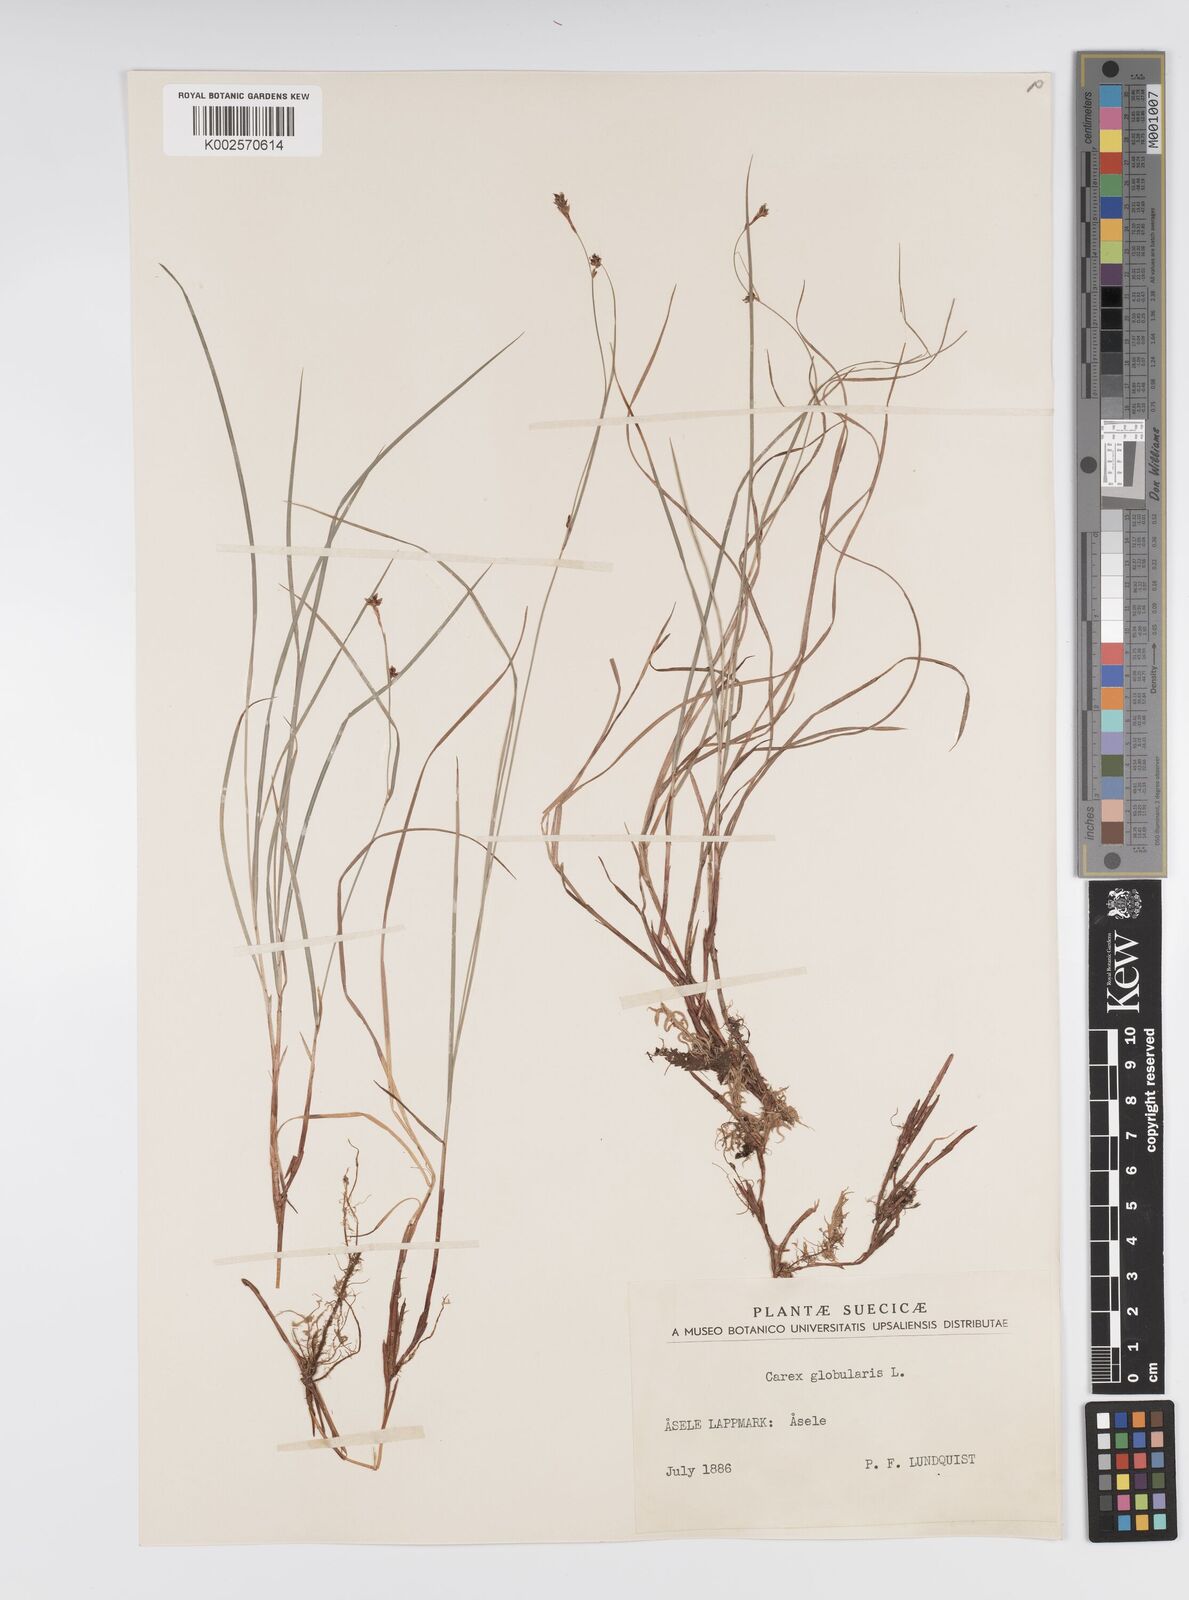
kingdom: Plantae
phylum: Tracheophyta
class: Liliopsida
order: Poales
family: Cyperaceae
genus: Carex
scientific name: Carex globularis
